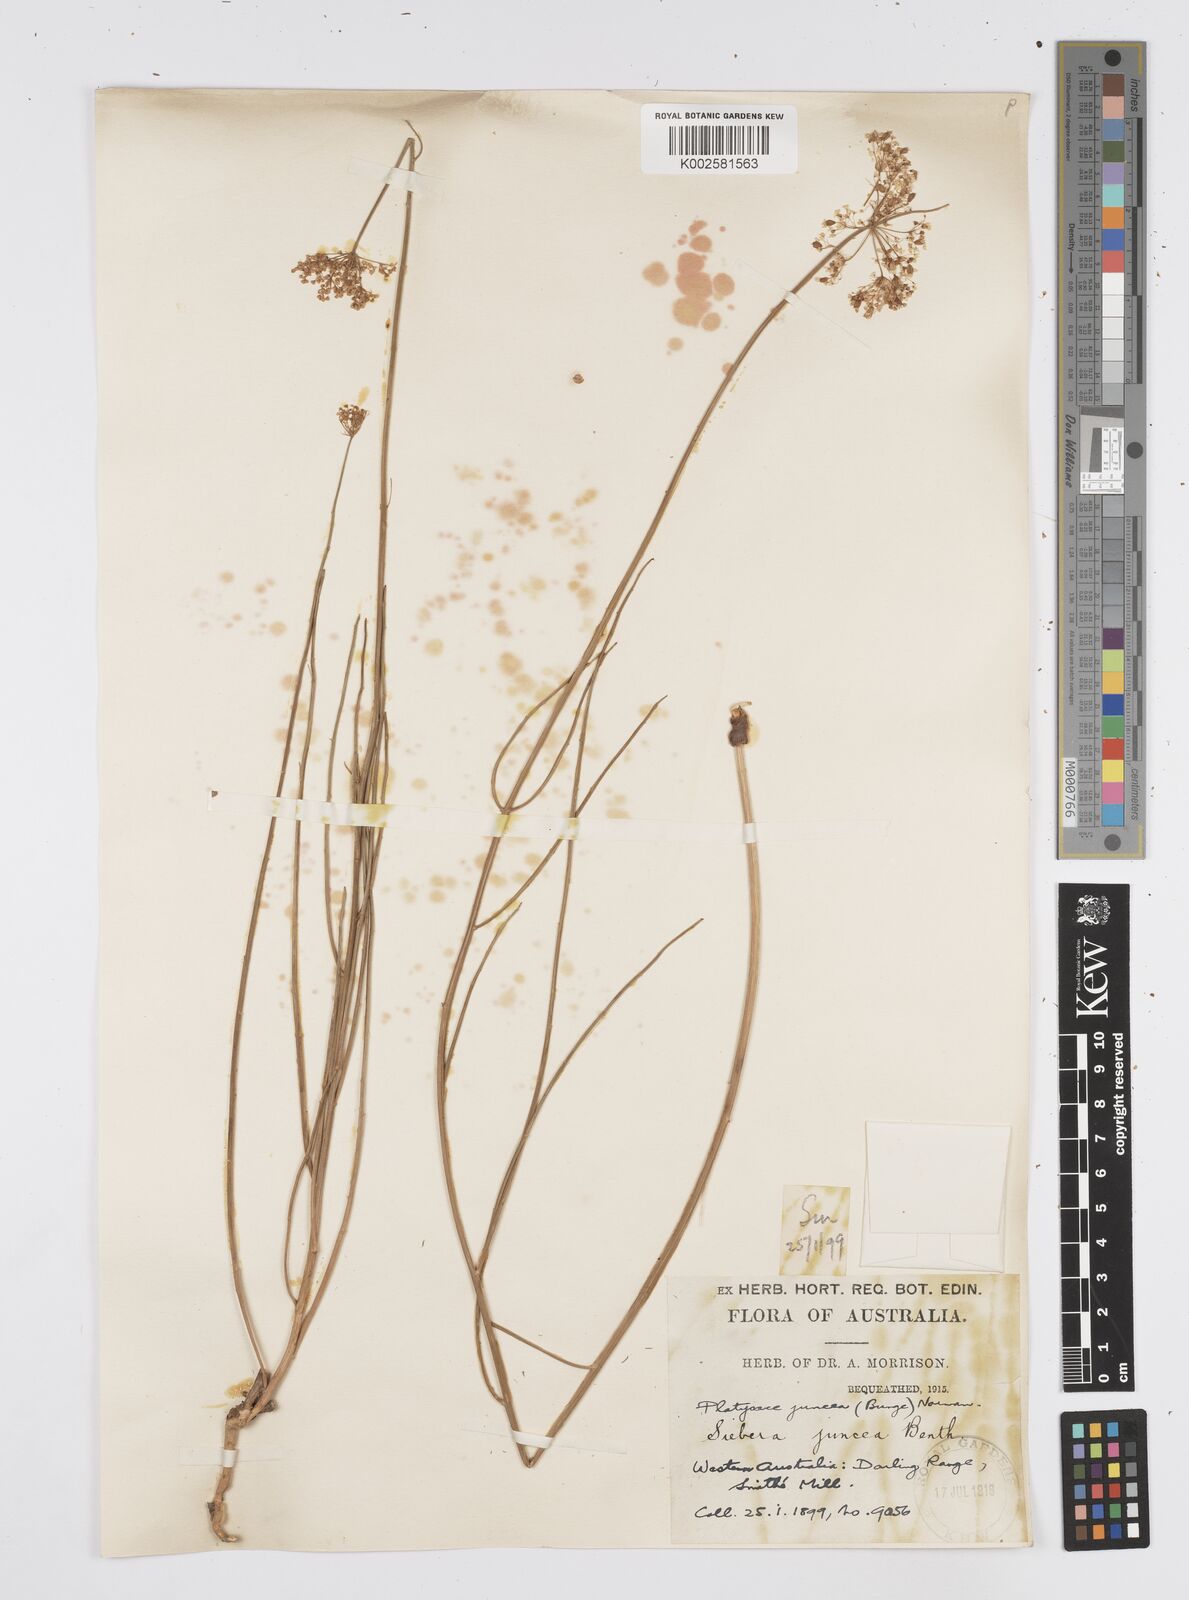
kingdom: Plantae
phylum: Tracheophyta
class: Magnoliopsida
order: Apiales
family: Apiaceae
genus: Platysace
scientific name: Platysace juncea
